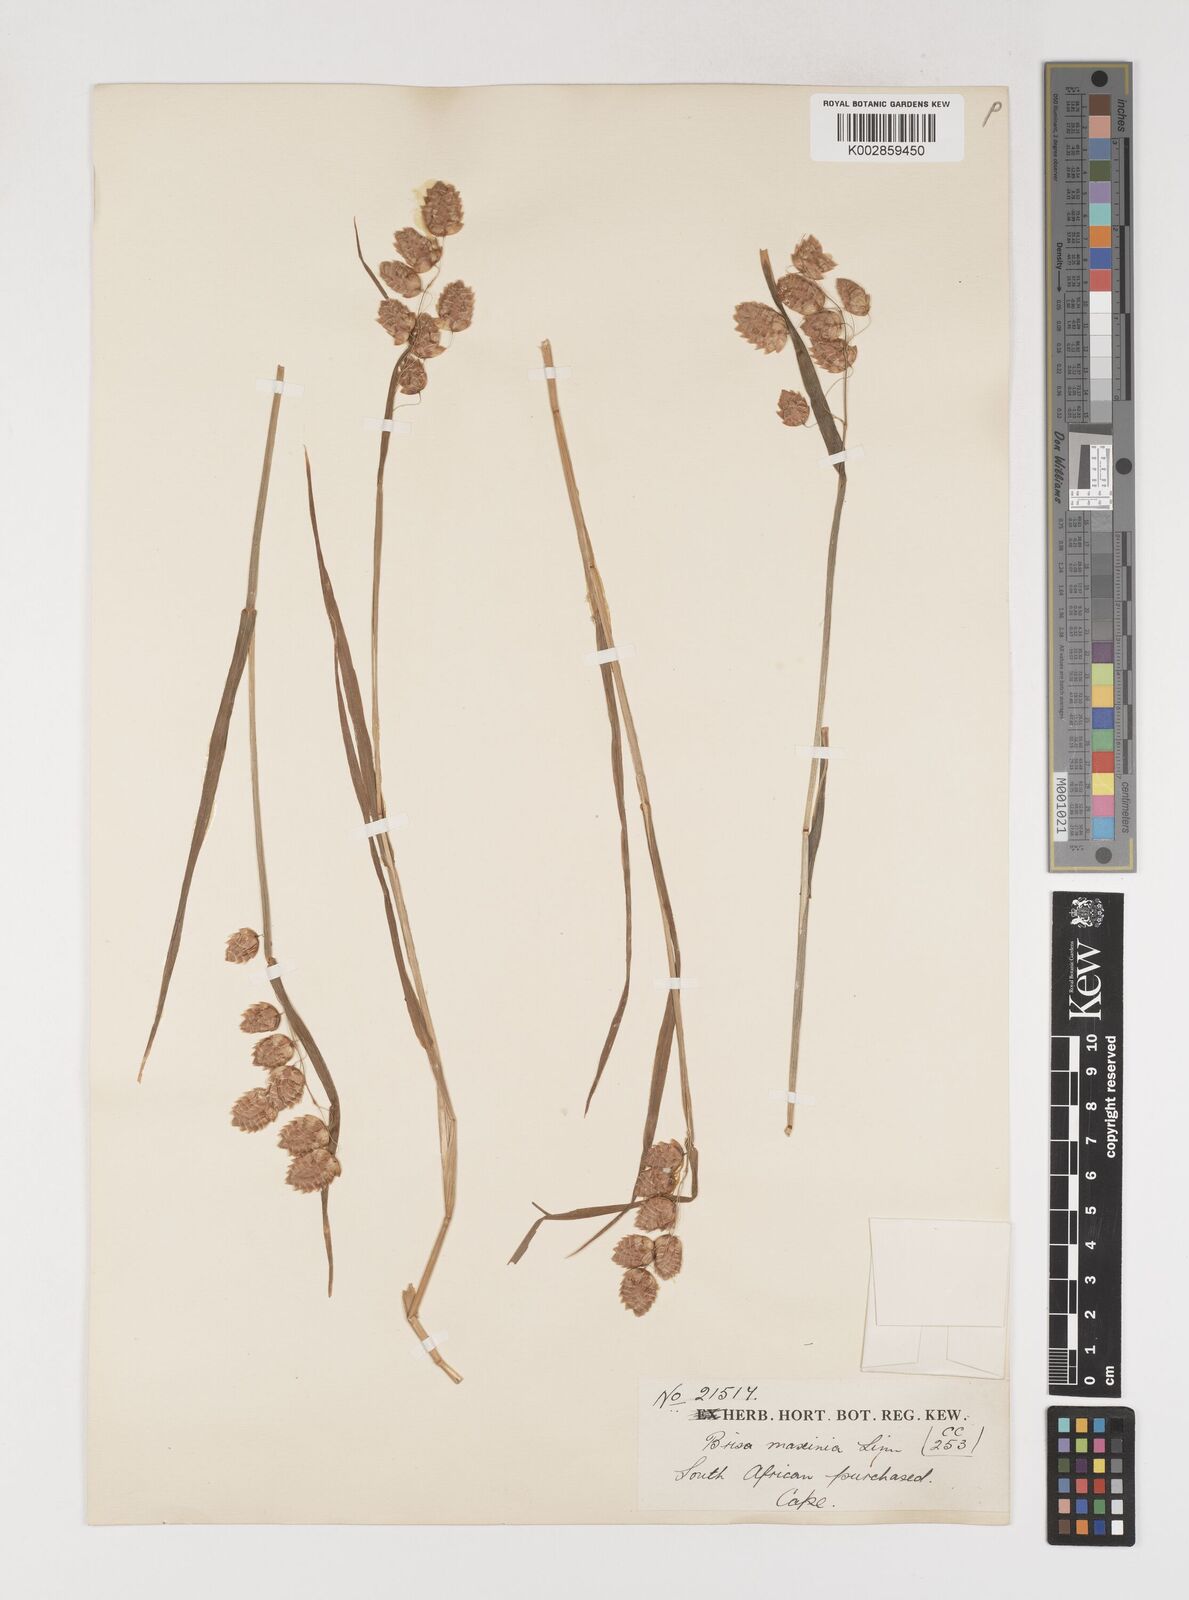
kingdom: Plantae
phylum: Tracheophyta
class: Liliopsida
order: Poales
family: Poaceae
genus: Briza
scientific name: Briza maxima
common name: Big quakinggrass
